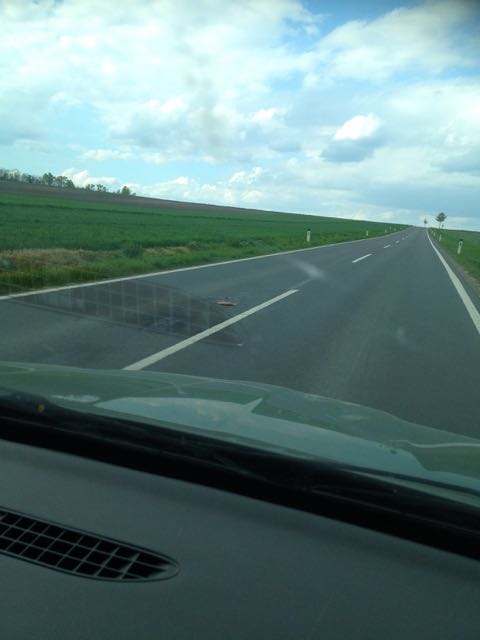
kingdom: Animalia
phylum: Chordata
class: Mammalia
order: Lagomorpha
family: Leporidae
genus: Lepus
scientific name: Lepus europaeus
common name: European hare
